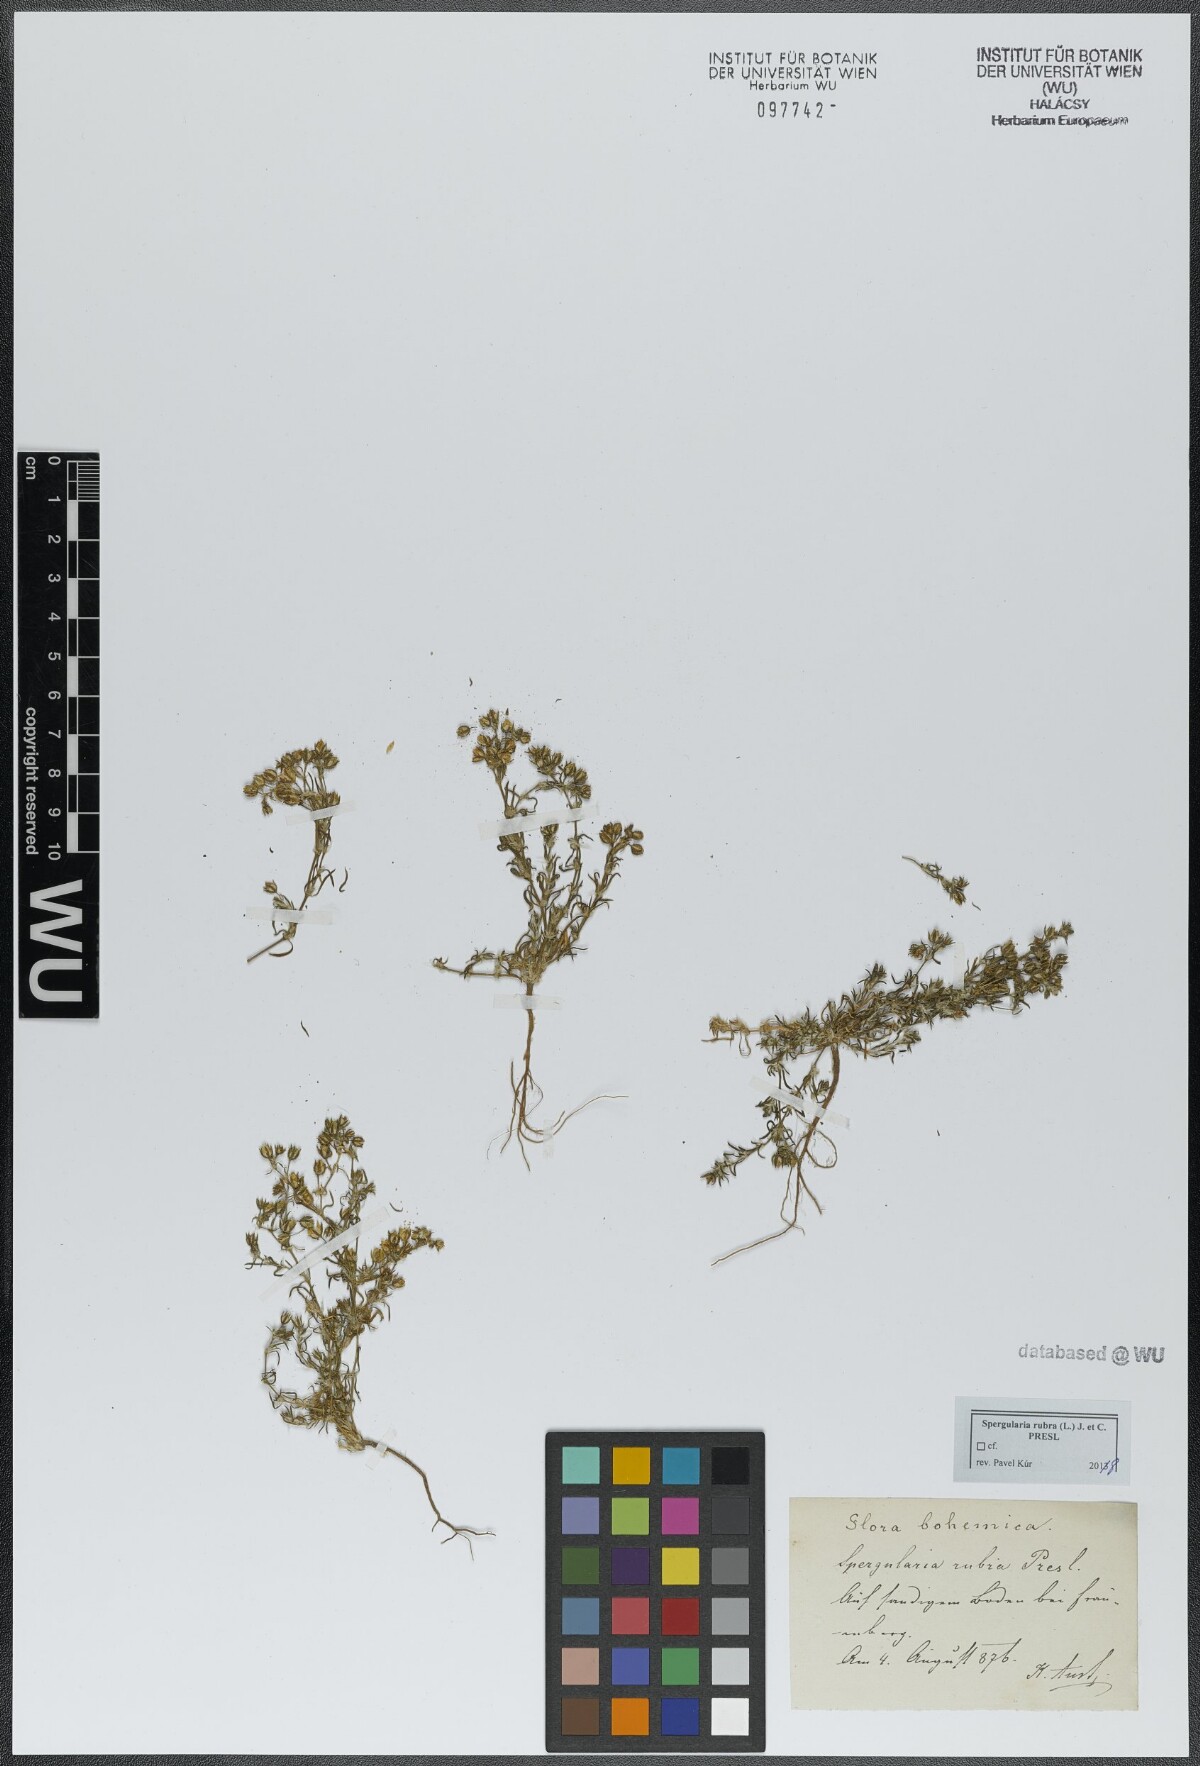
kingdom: Plantae
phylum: Tracheophyta
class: Magnoliopsida
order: Caryophyllales
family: Caryophyllaceae
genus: Spergularia
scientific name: Spergularia rubra
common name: Red sand-spurrey
